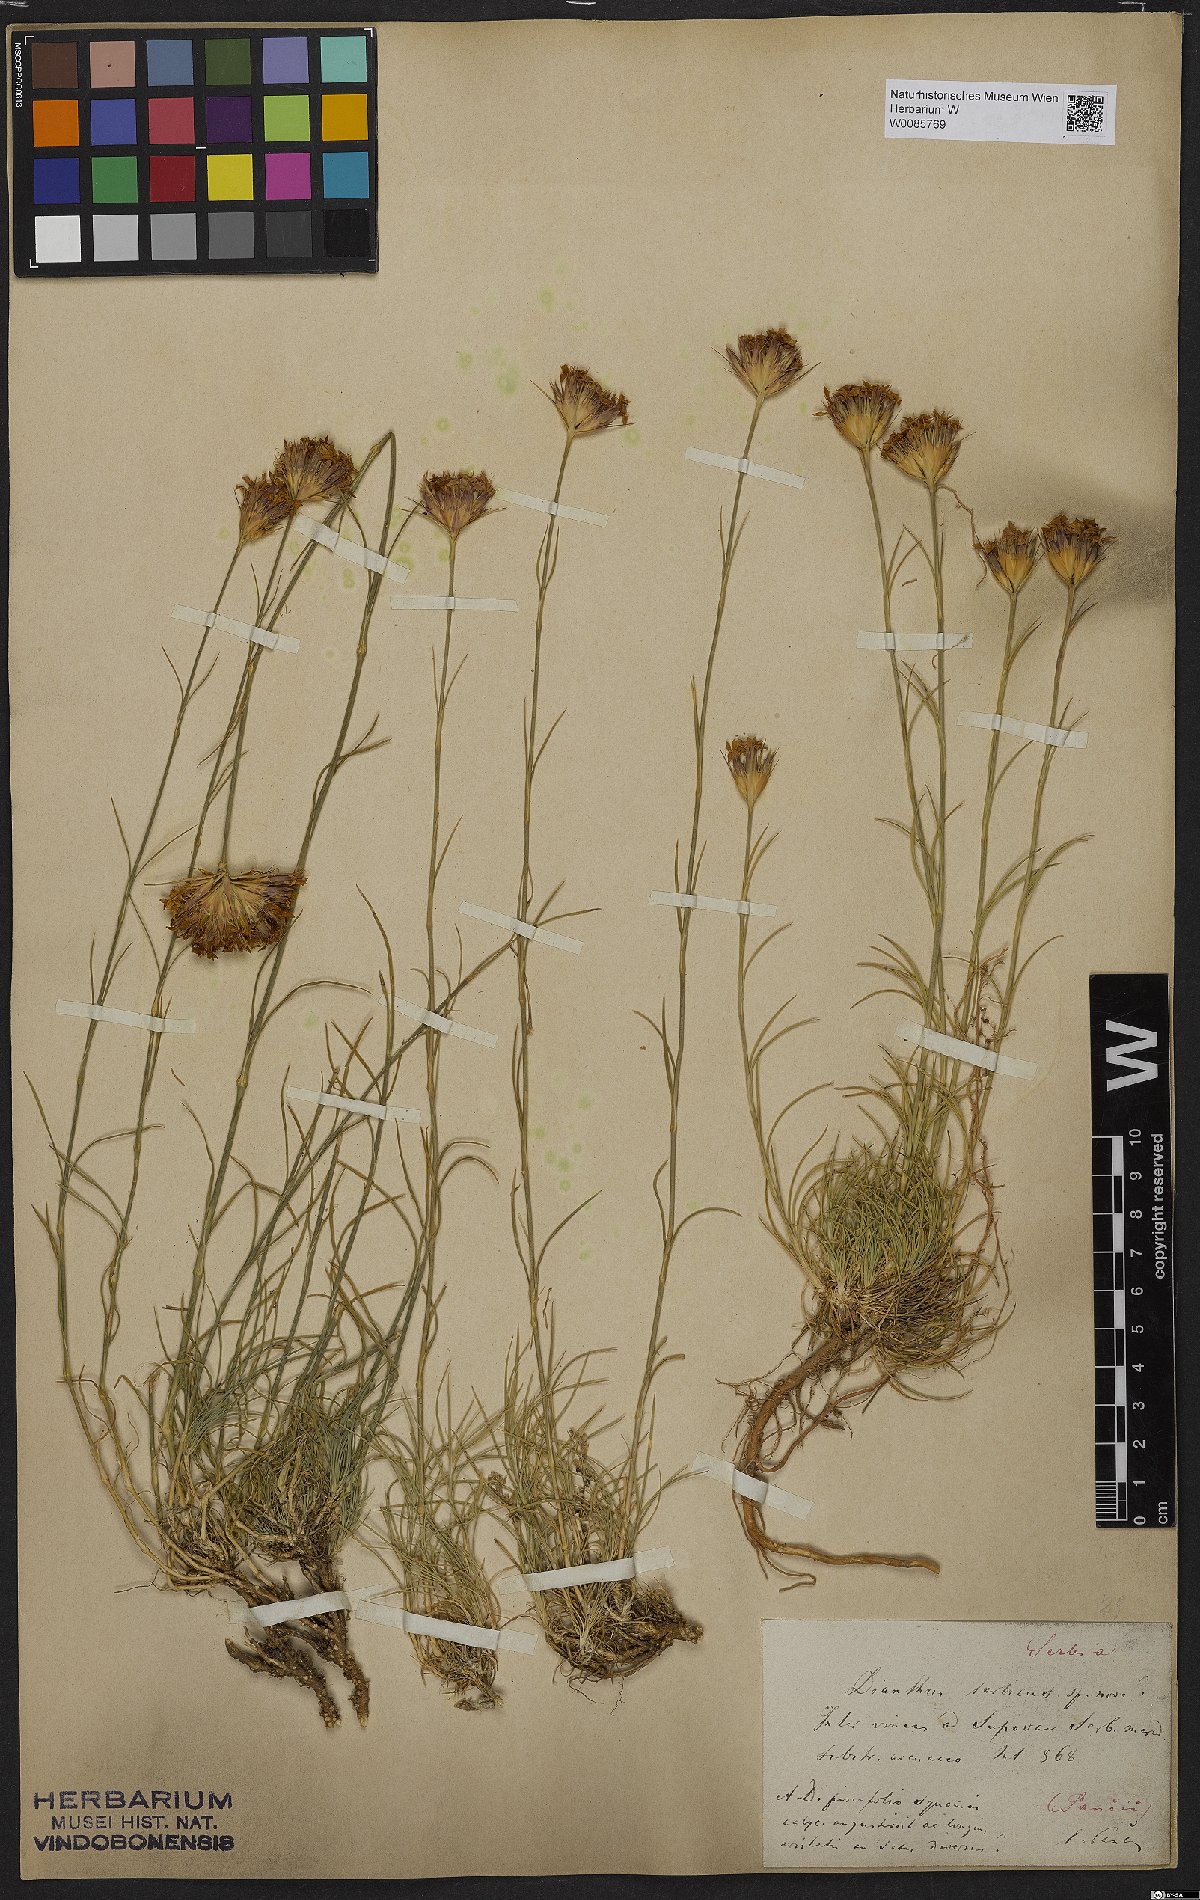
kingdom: Plantae
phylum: Tracheophyta
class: Magnoliopsida
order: Caryophyllales
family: Caryophyllaceae
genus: Dianthus
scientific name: Dianthus pinifolius
